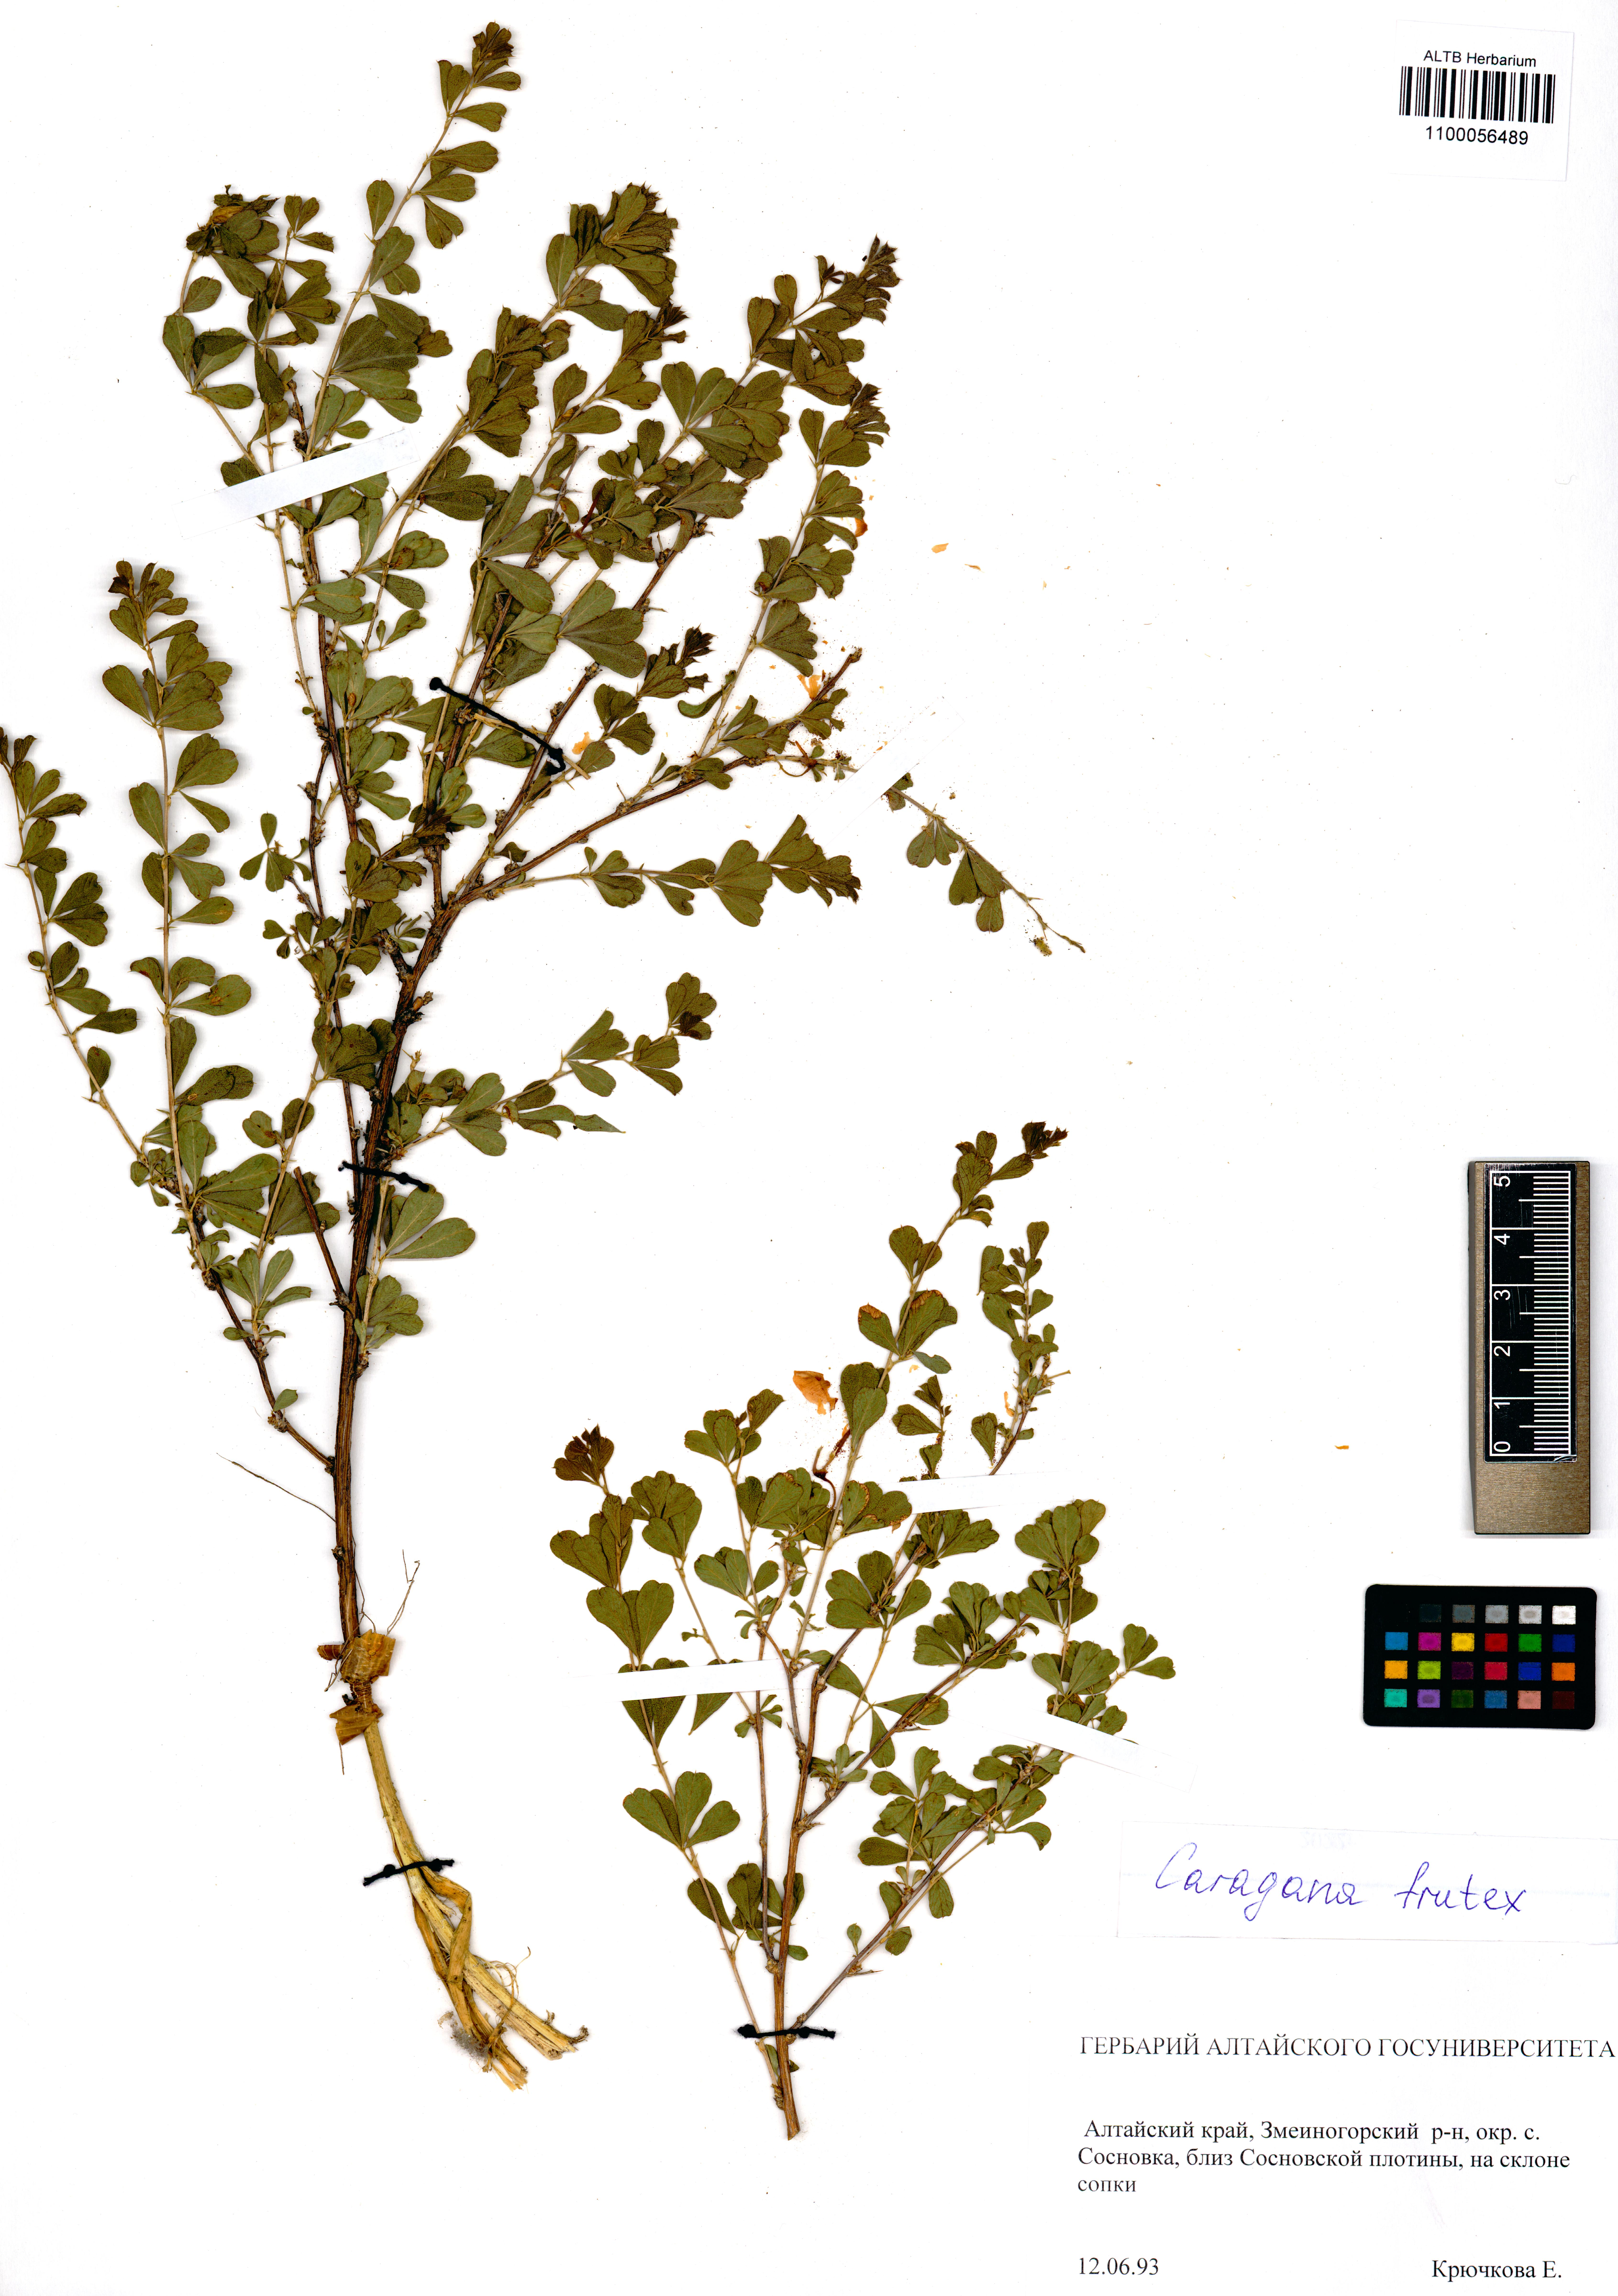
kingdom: Plantae
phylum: Tracheophyta
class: Magnoliopsida
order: Fabales
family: Fabaceae
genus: Caragana
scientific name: Caragana frutex
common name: Russian peashrub
